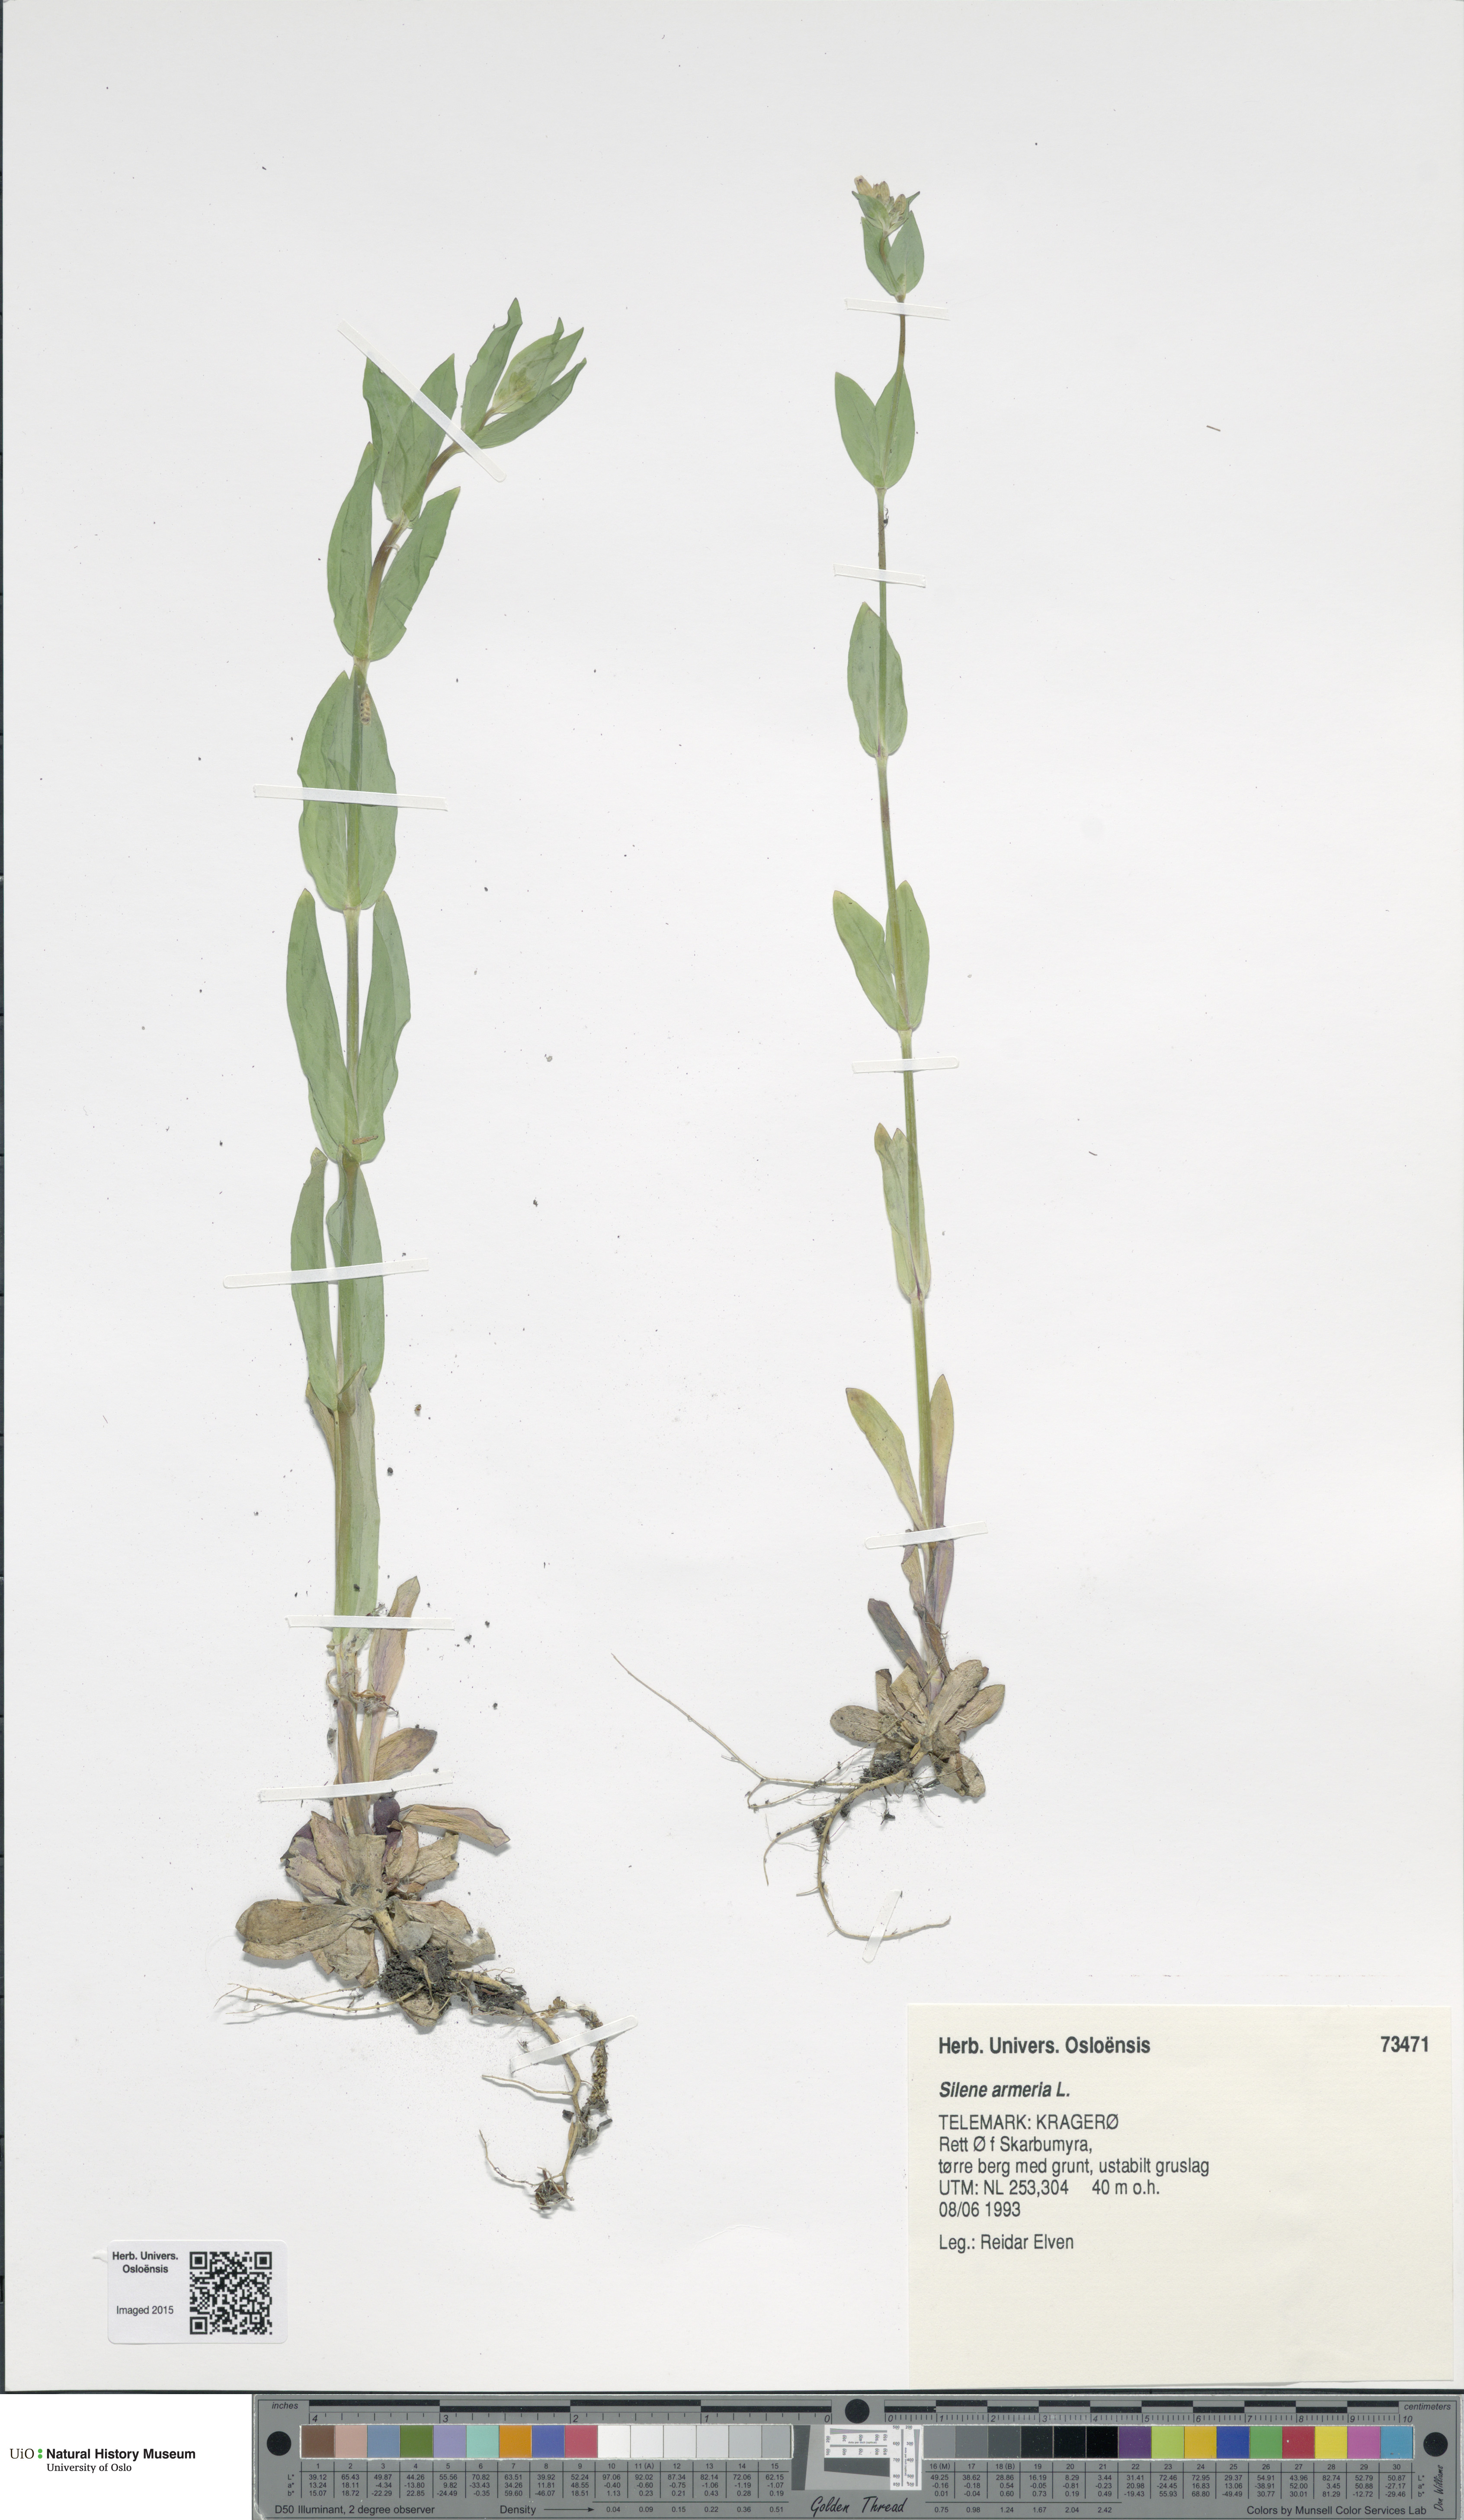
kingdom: Plantae
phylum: Tracheophyta
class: Magnoliopsida
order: Caryophyllales
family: Caryophyllaceae
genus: Atocion
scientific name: Atocion armeria
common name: Sweet william catchfly
